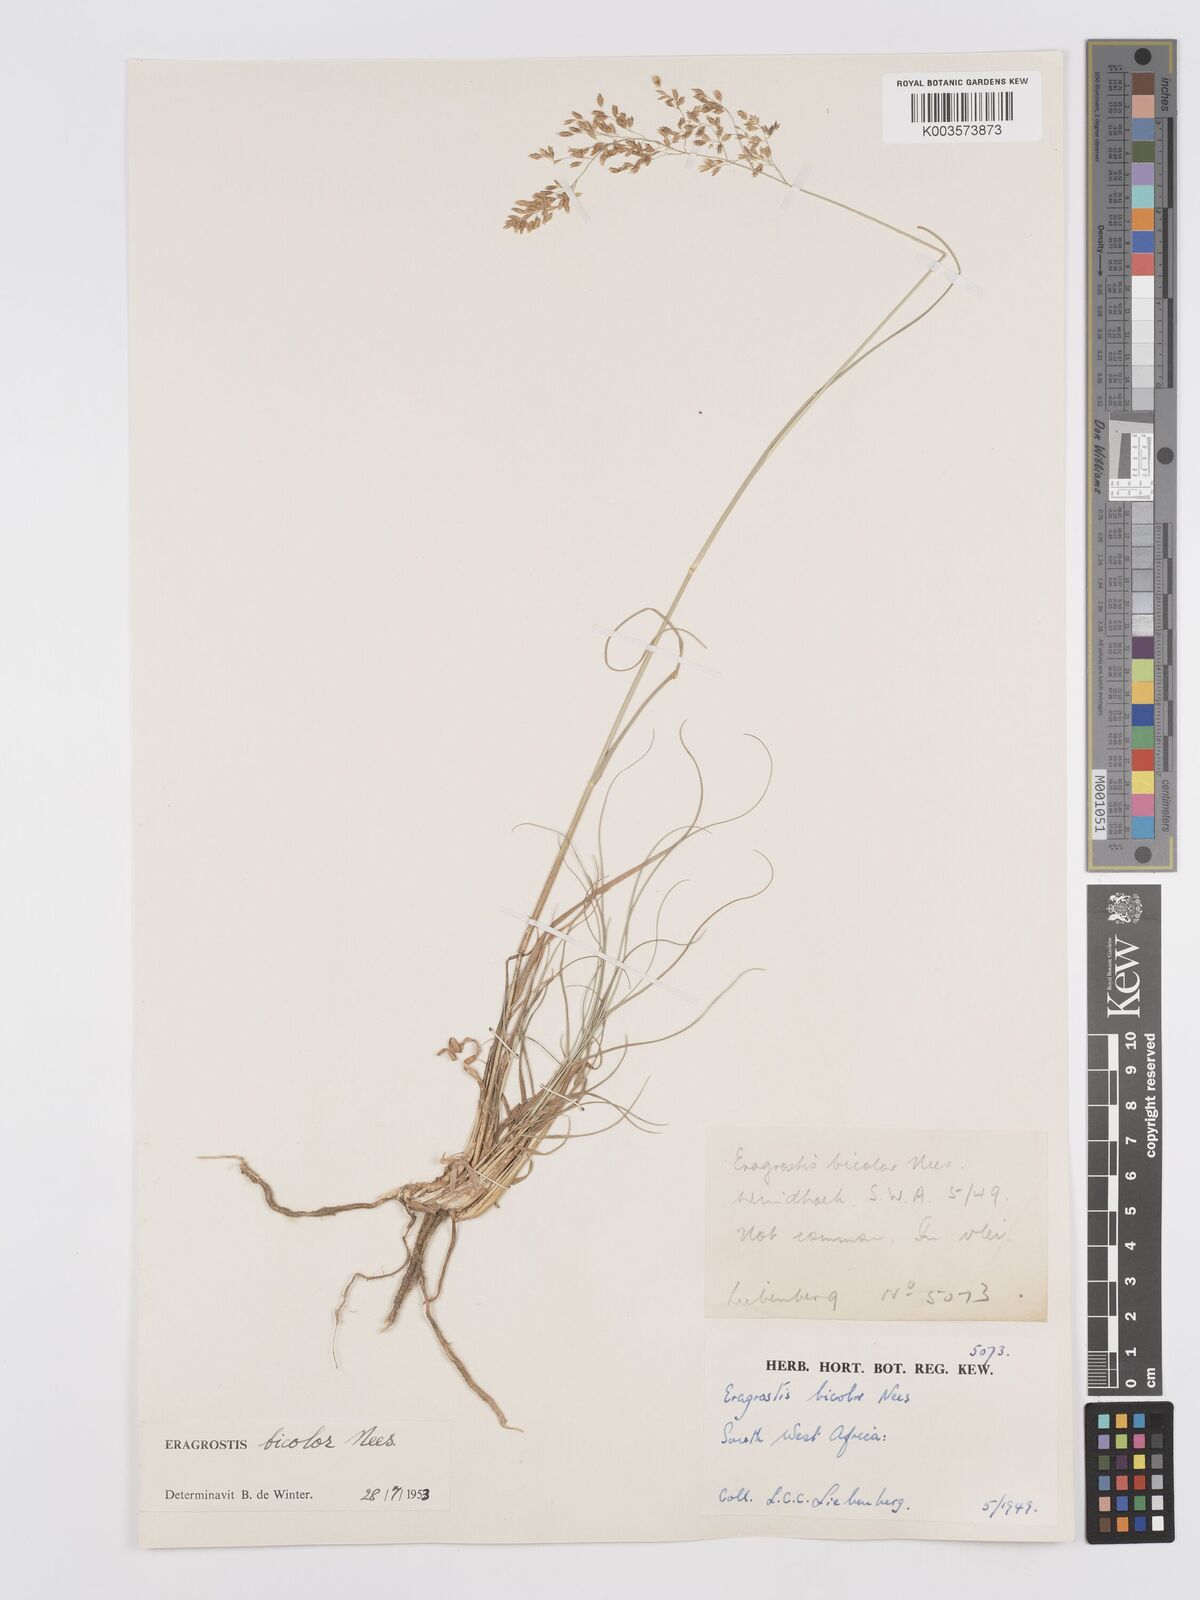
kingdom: Plantae
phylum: Tracheophyta
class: Liliopsida
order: Poales
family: Poaceae
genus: Eragrostis
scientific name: Eragrostis
